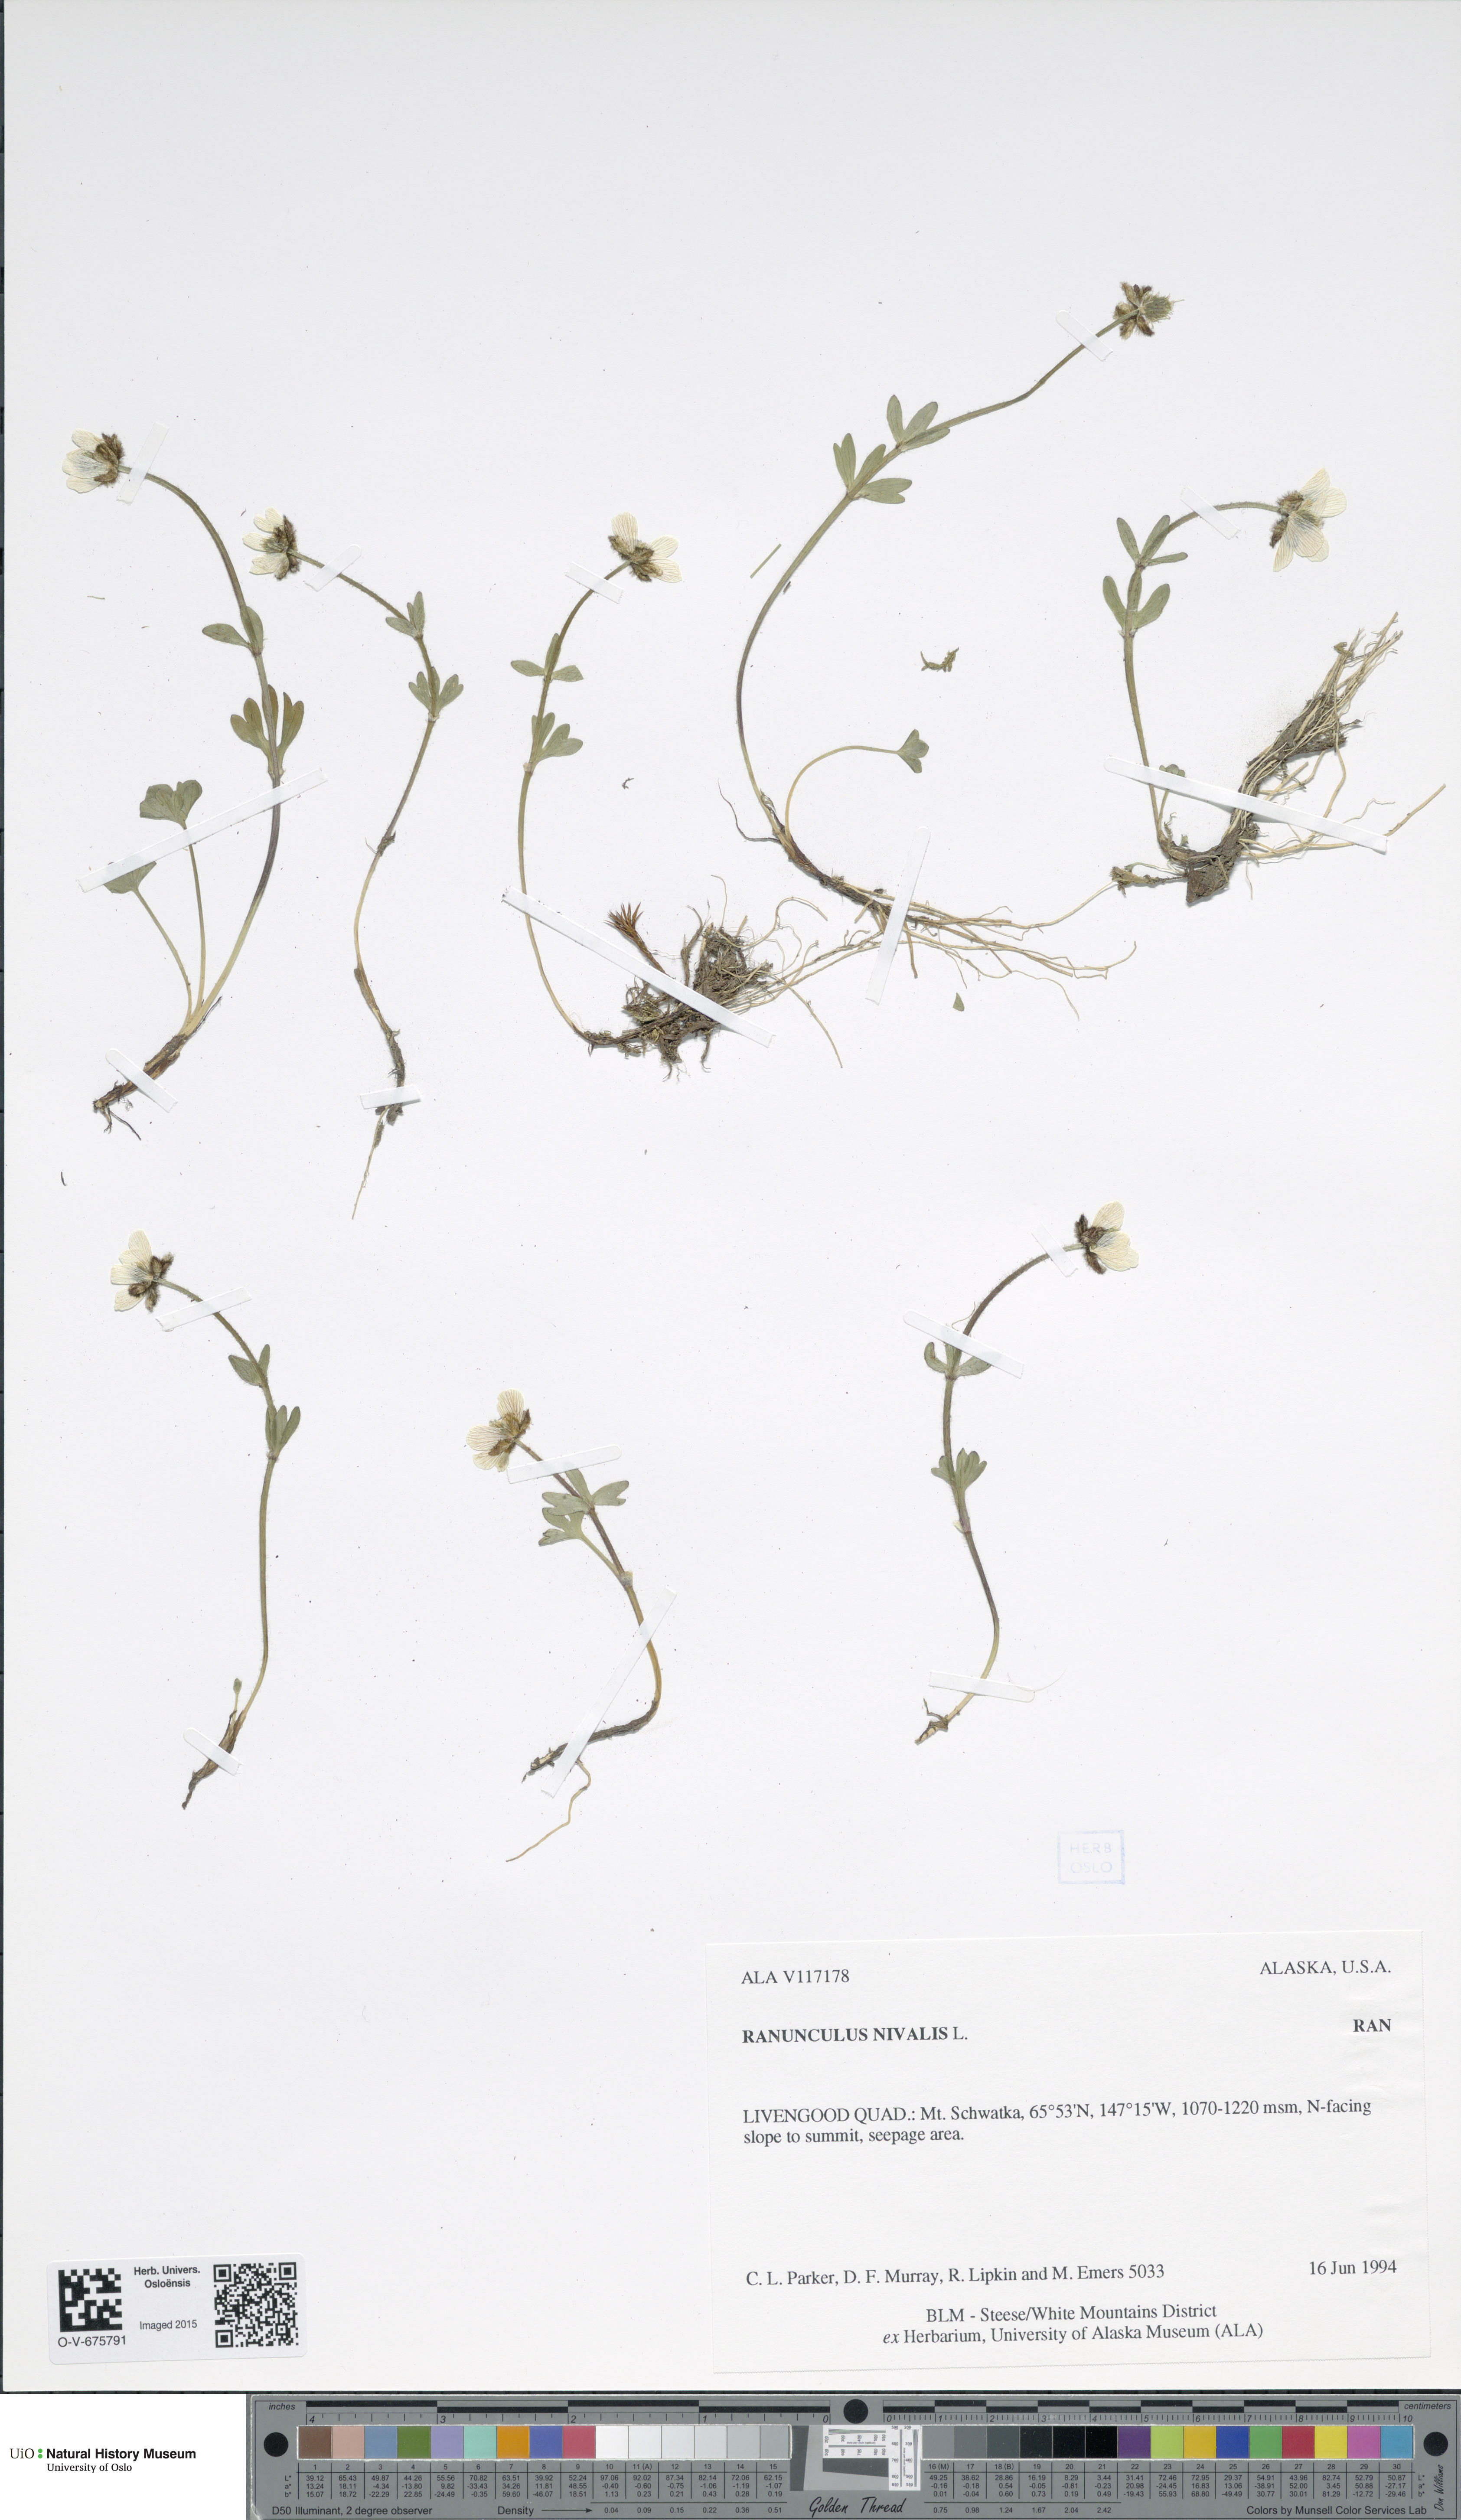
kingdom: Plantae
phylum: Tracheophyta
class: Magnoliopsida
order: Ranunculales
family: Ranunculaceae
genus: Ranunculus
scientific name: Ranunculus nivalis
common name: Snow buttercup
